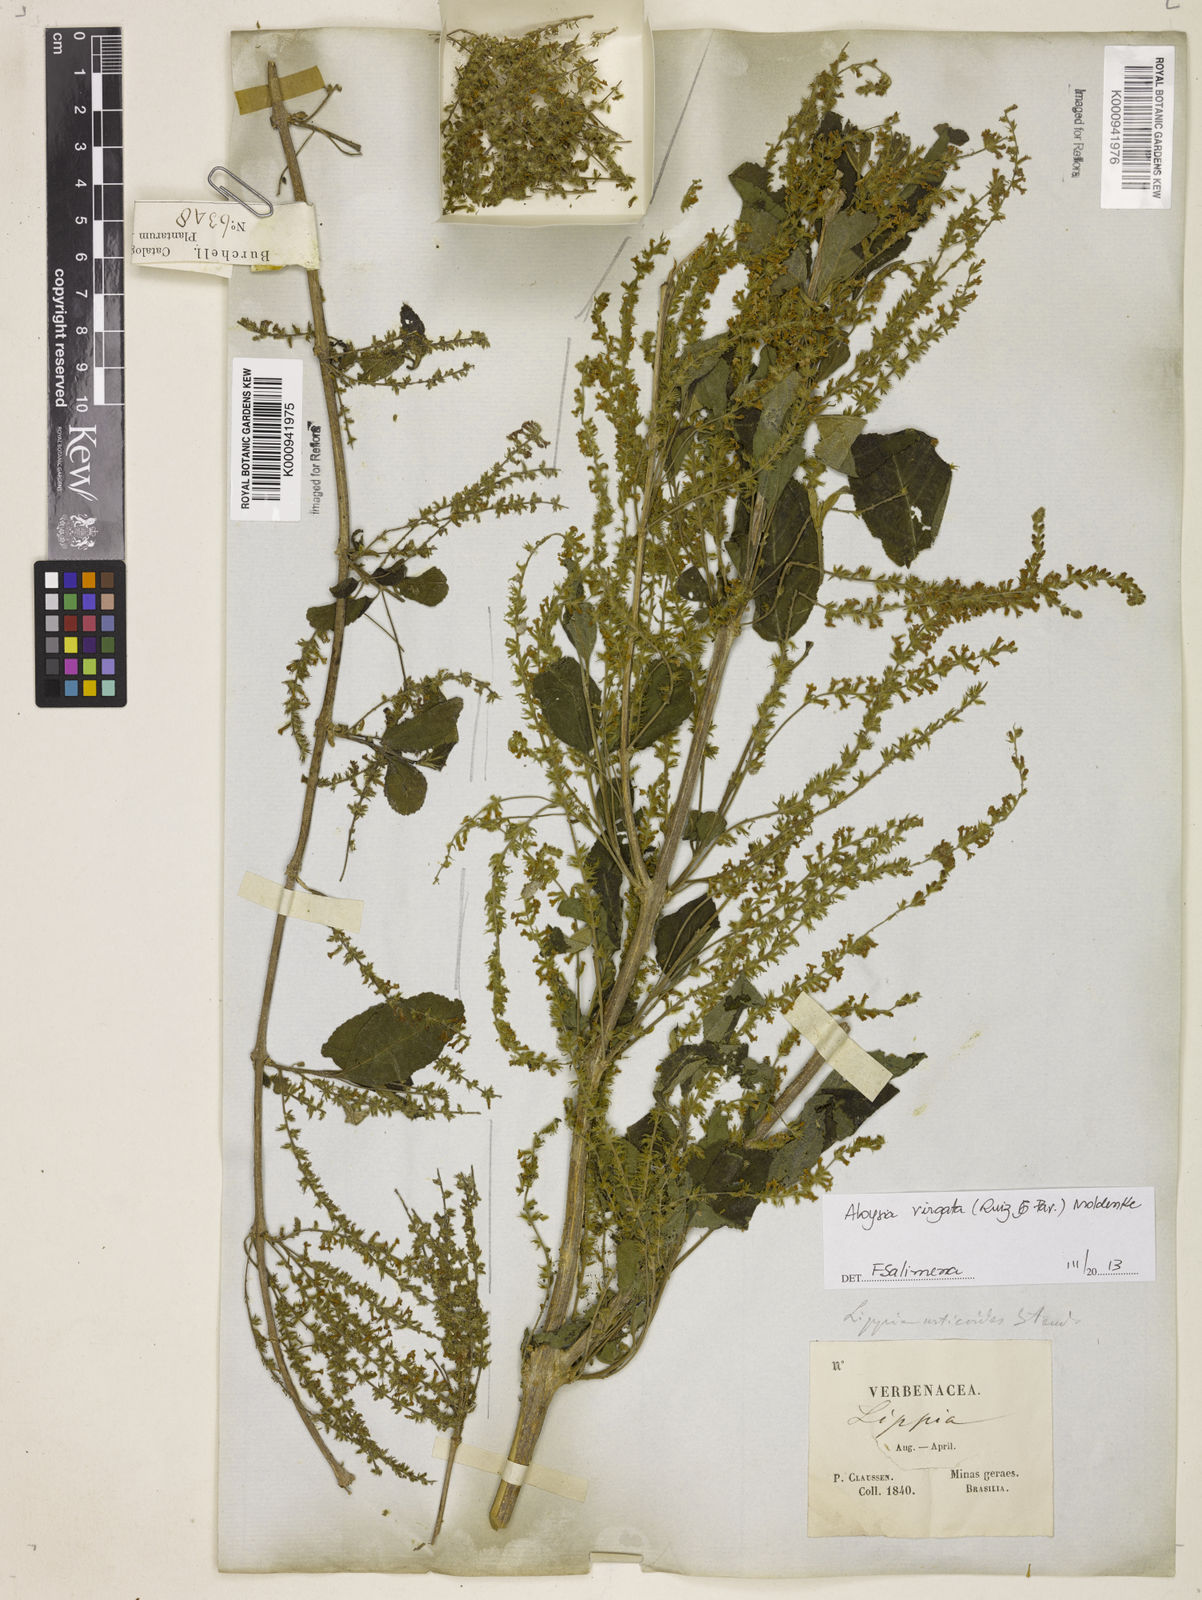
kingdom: Plantae
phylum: Tracheophyta
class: Magnoliopsida
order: Lamiales
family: Verbenaceae
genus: Aloysia
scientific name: Aloysia
